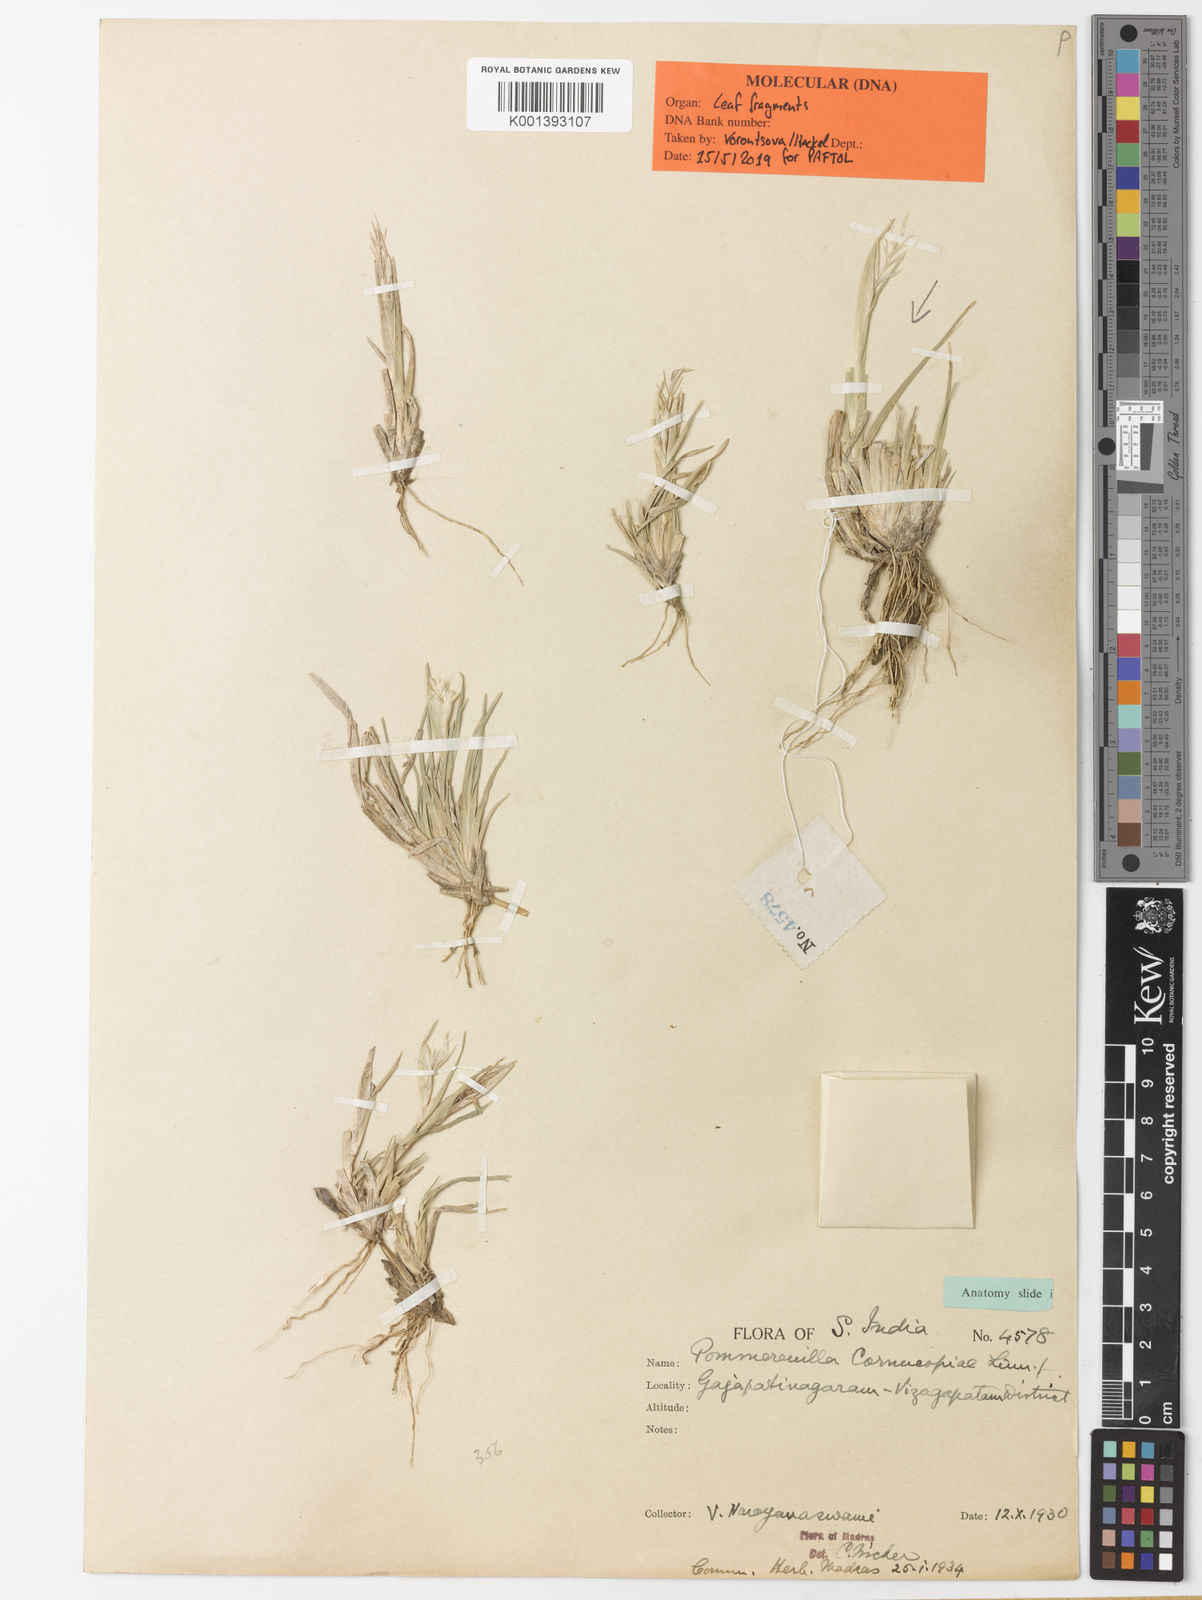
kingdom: Plantae
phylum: Tracheophyta
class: Liliopsida
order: Poales
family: Poaceae
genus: Pommereulla
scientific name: Pommereulla cornucopiae
